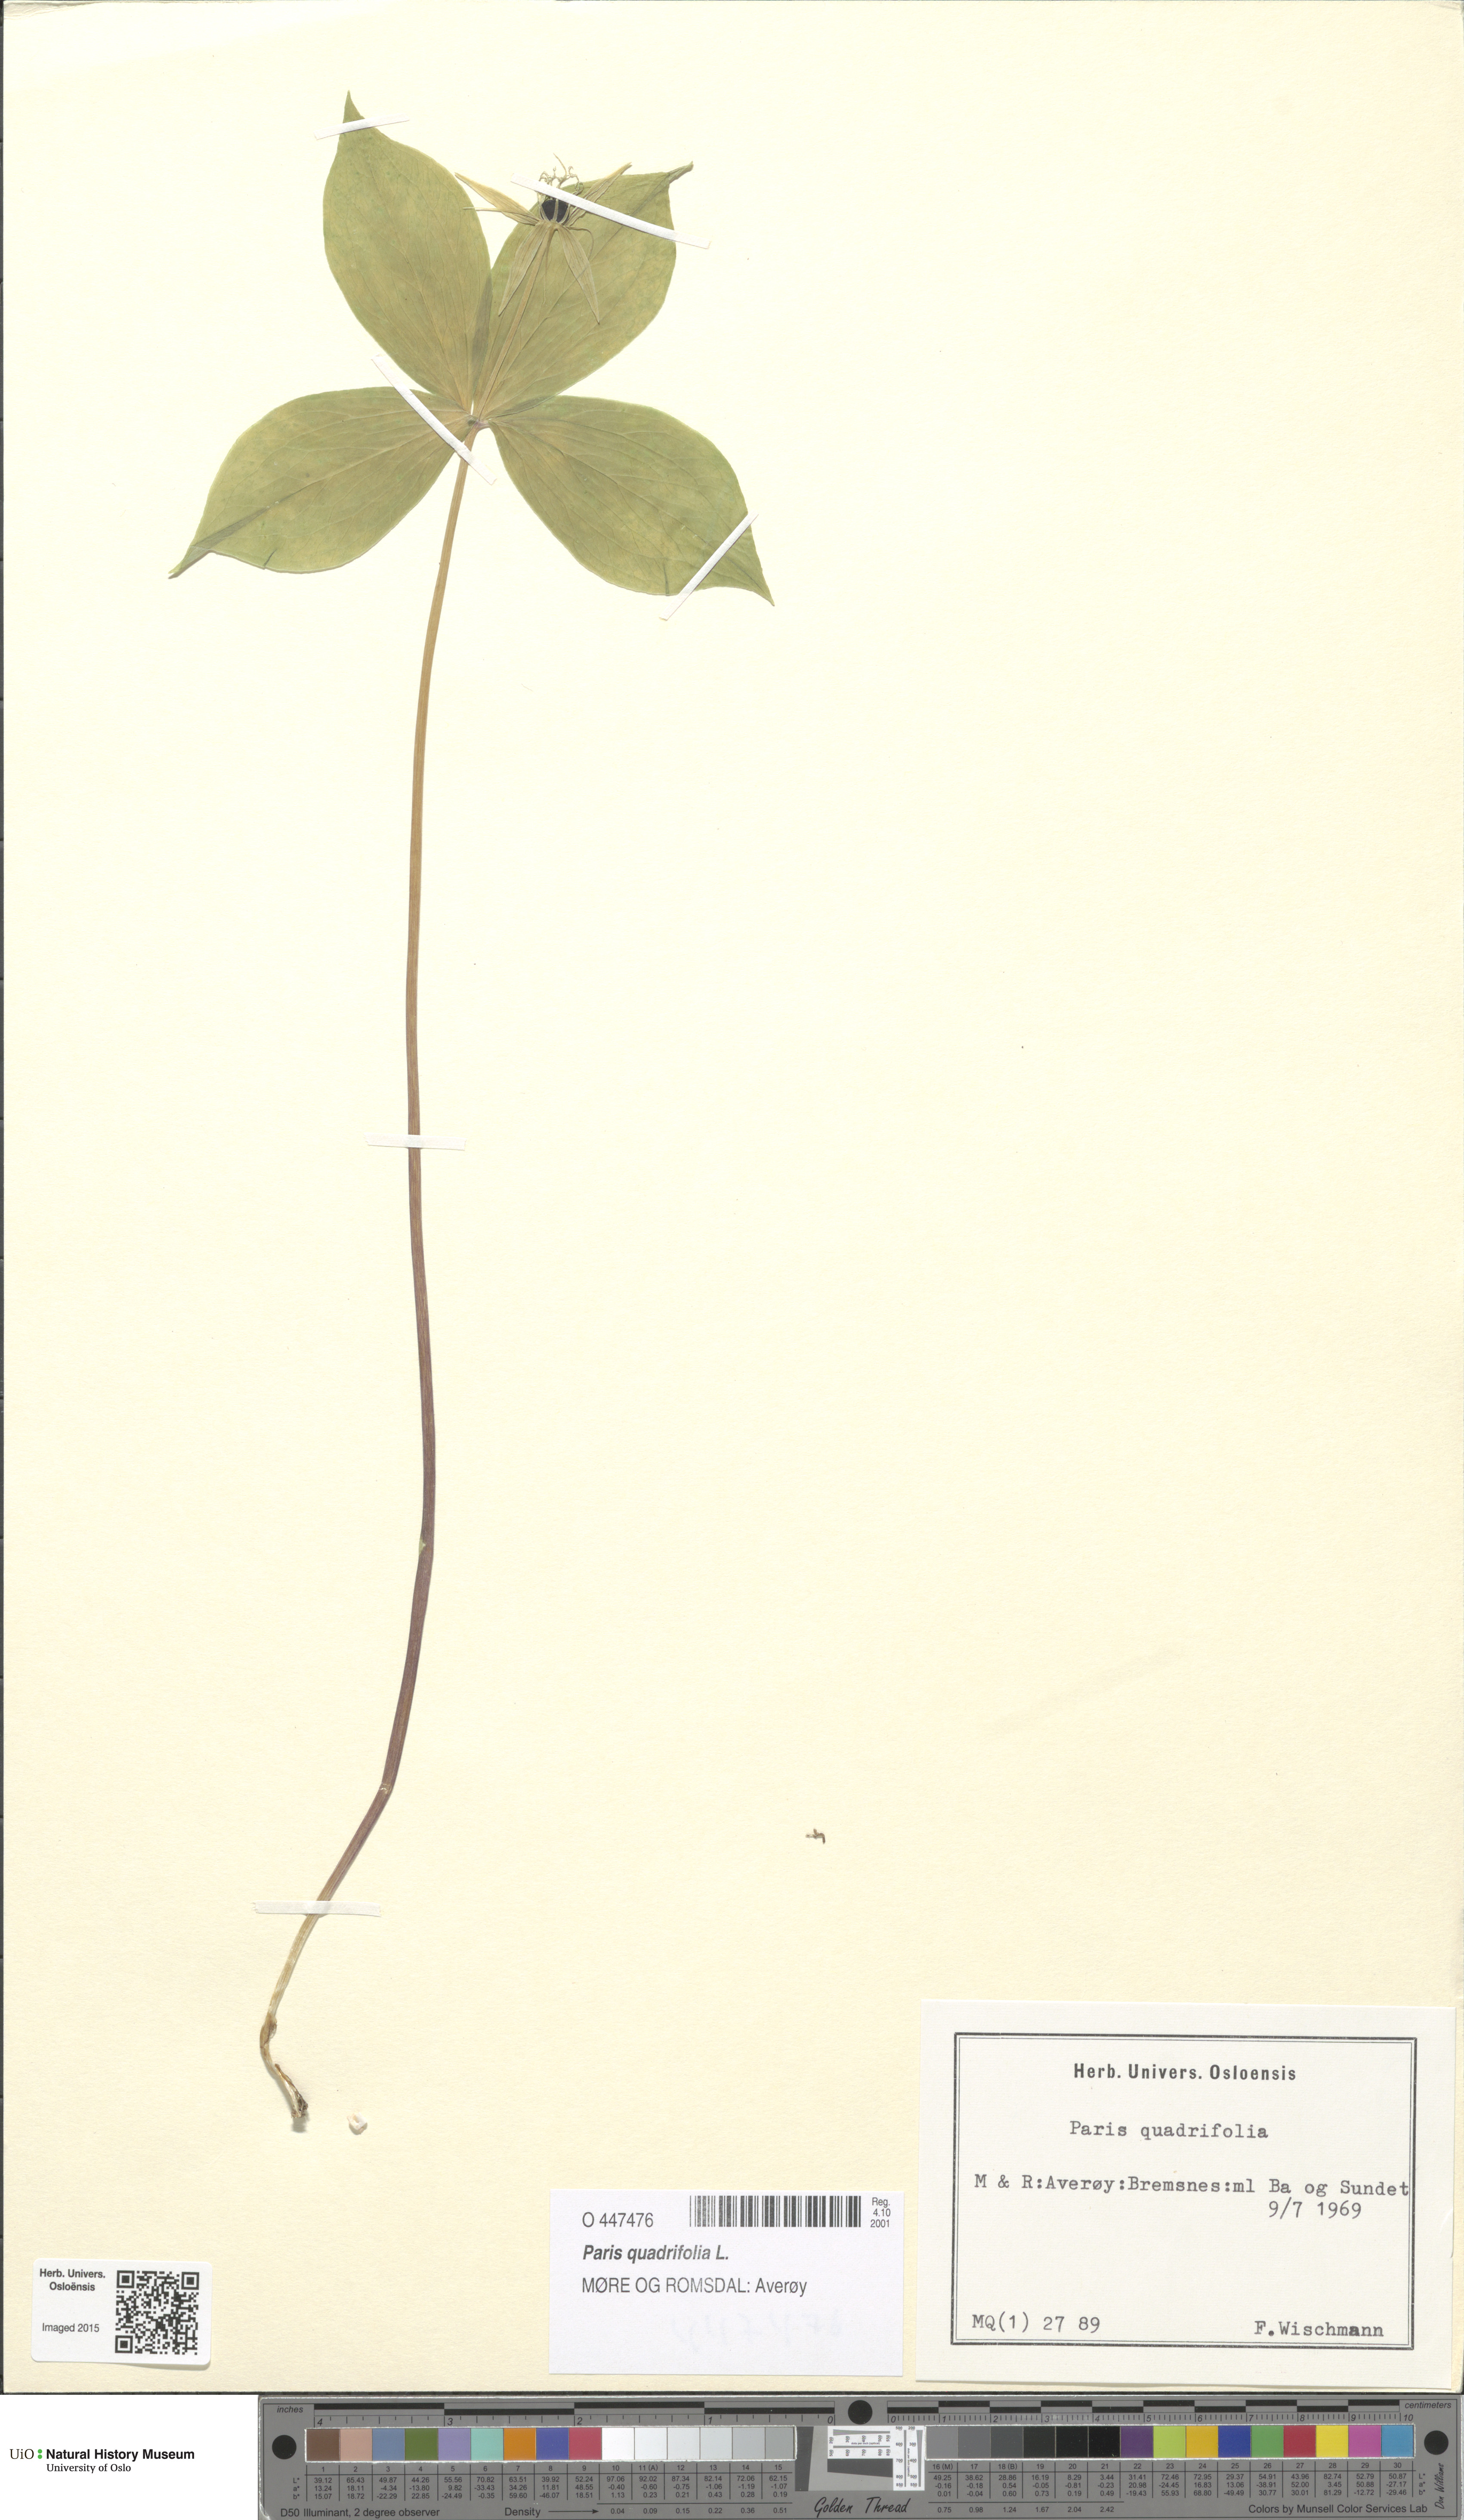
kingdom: Plantae
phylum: Tracheophyta
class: Liliopsida
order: Liliales
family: Melanthiaceae
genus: Paris
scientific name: Paris quadrifolia
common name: Herb-paris
